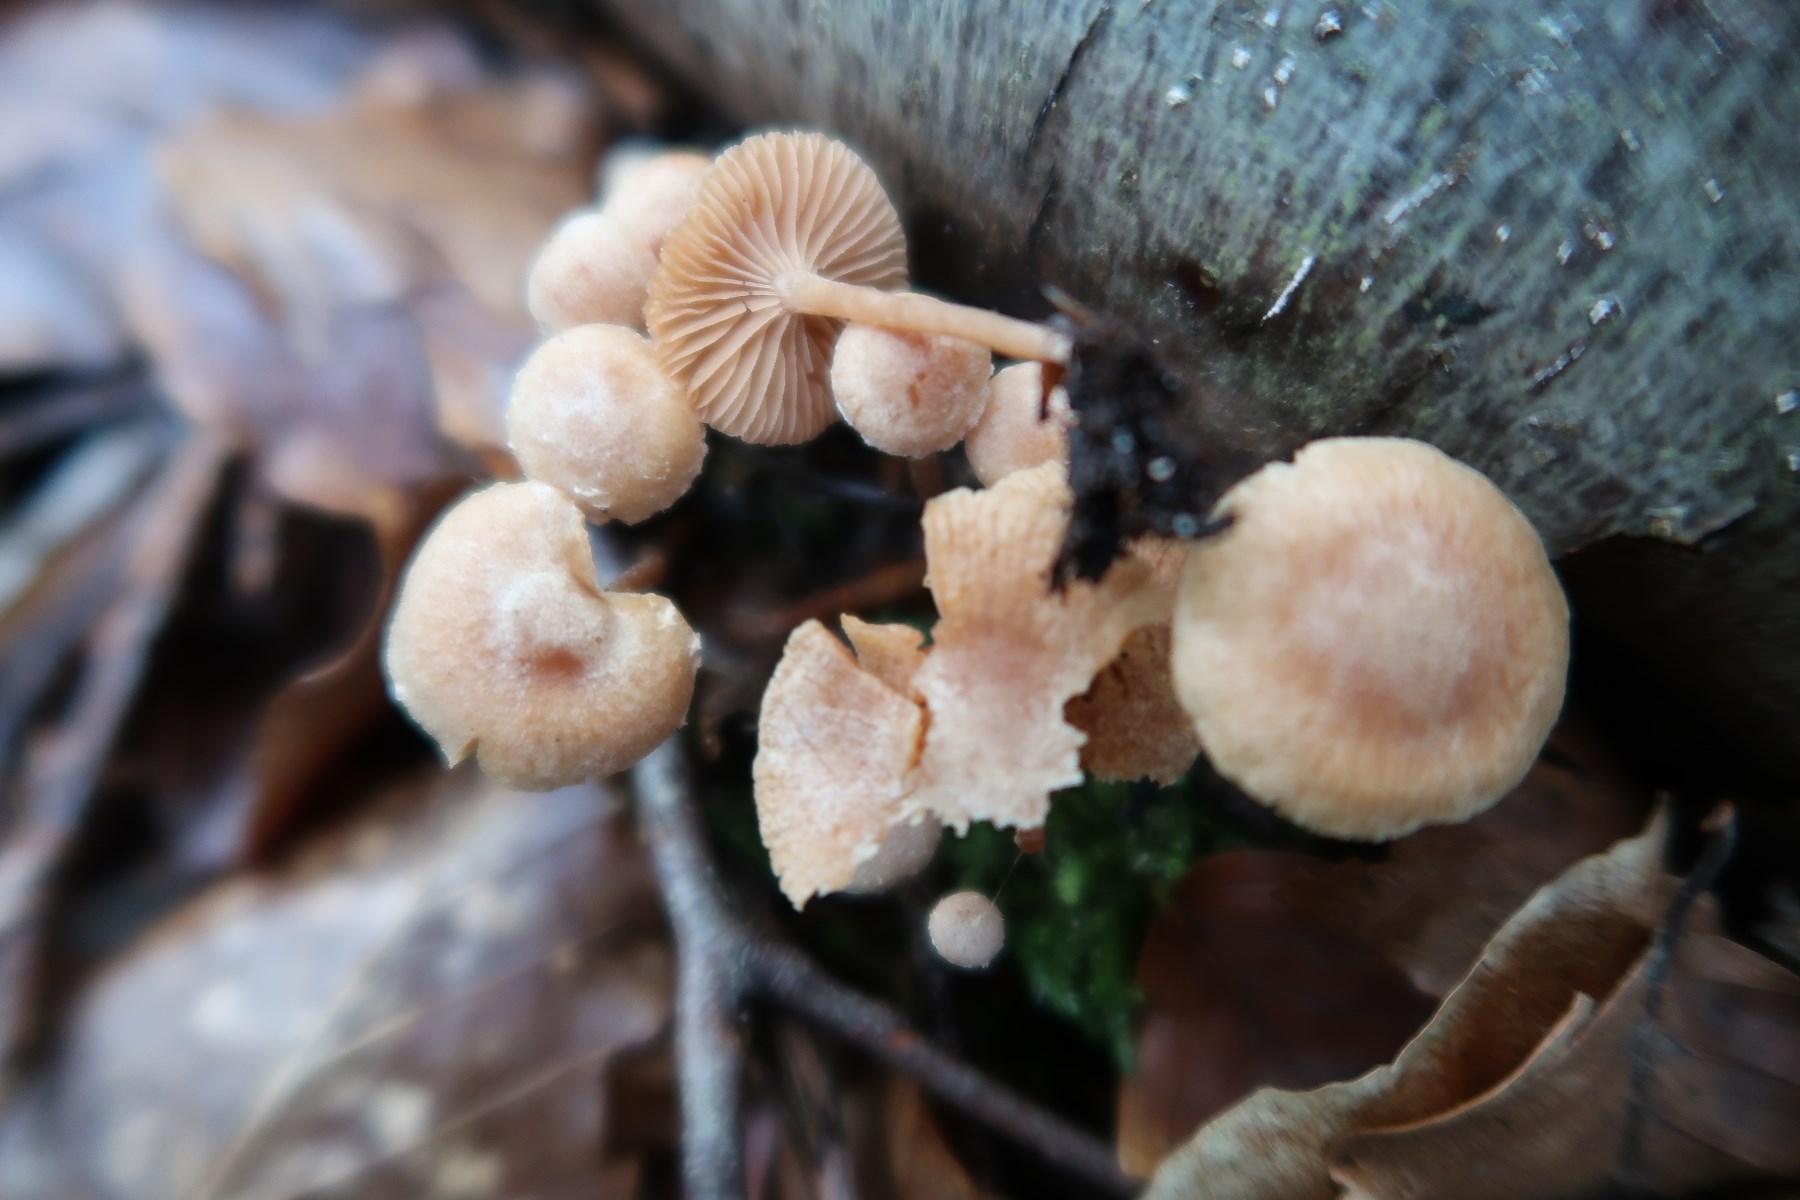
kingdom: Fungi
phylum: Basidiomycota
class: Agaricomycetes
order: Agaricales
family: Tubariaceae
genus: Tubaria
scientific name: Tubaria furfuracea
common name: kliddet fnughat
